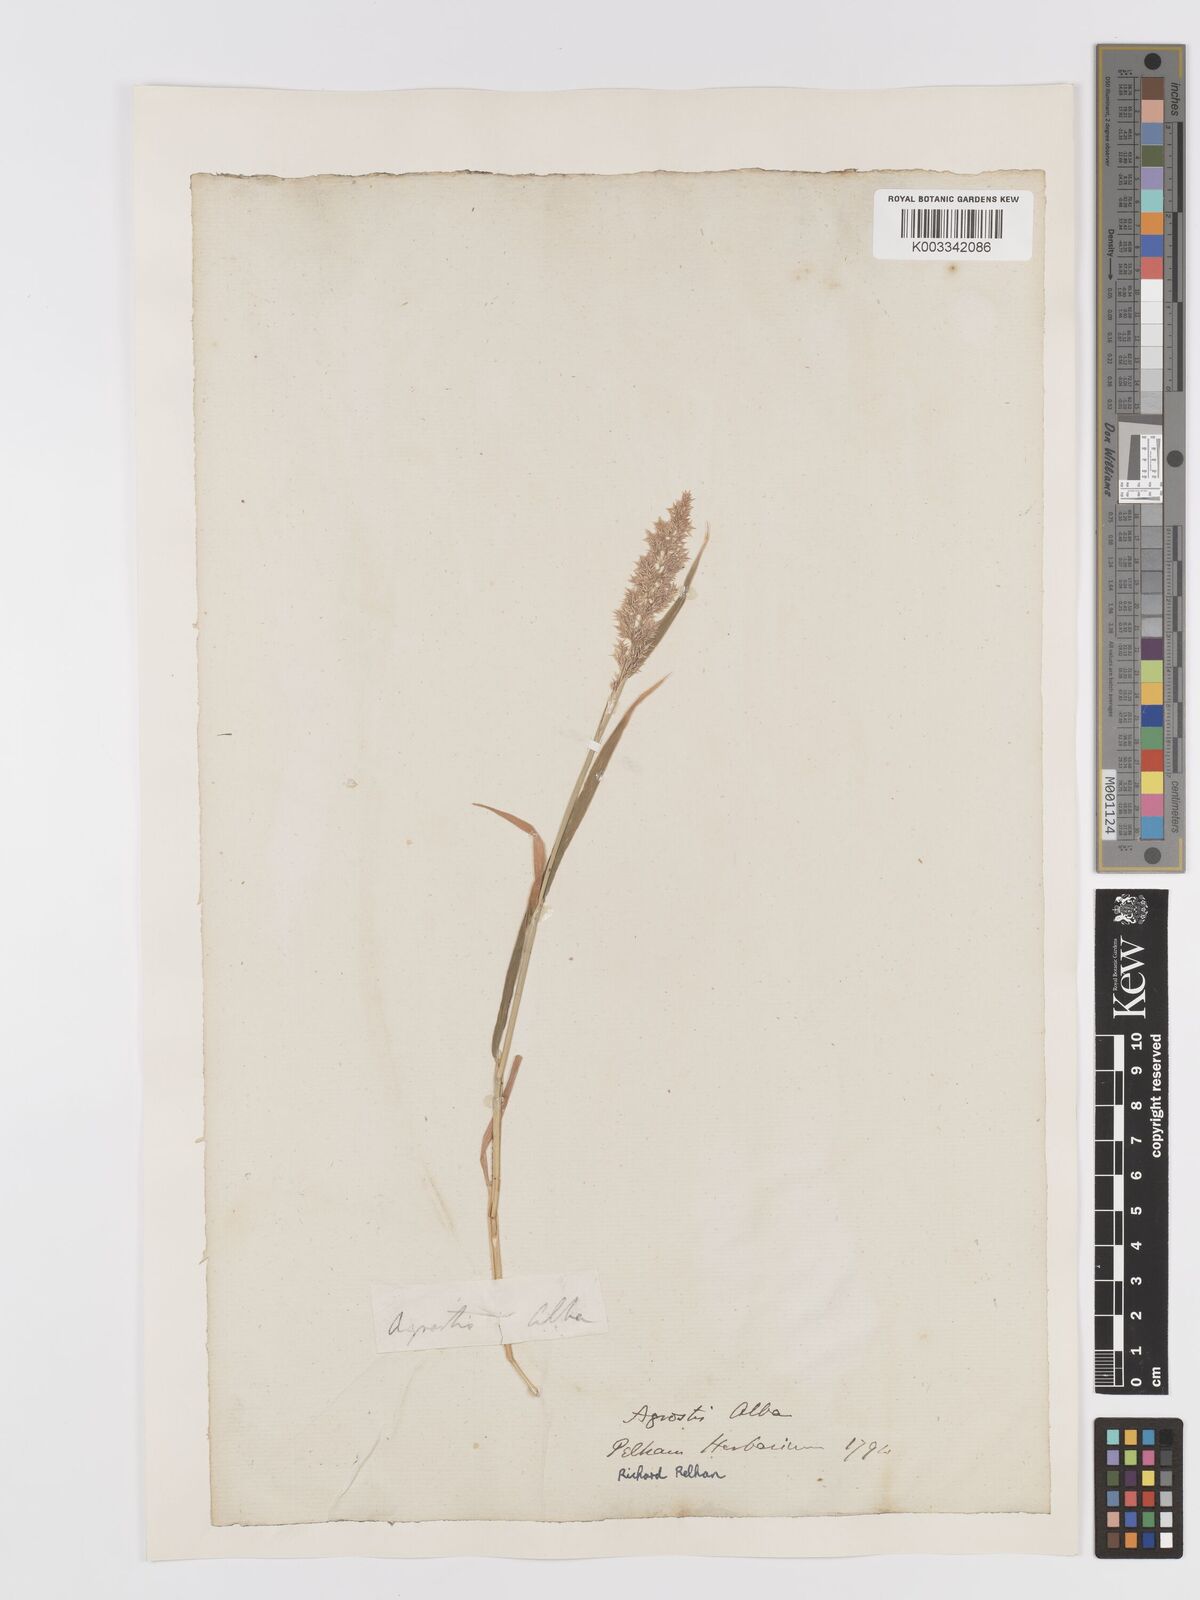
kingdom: Plantae
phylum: Tracheophyta
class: Liliopsida
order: Poales
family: Poaceae
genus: Agrostis
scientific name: Agrostis stolonifera
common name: Creeping bentgrass
